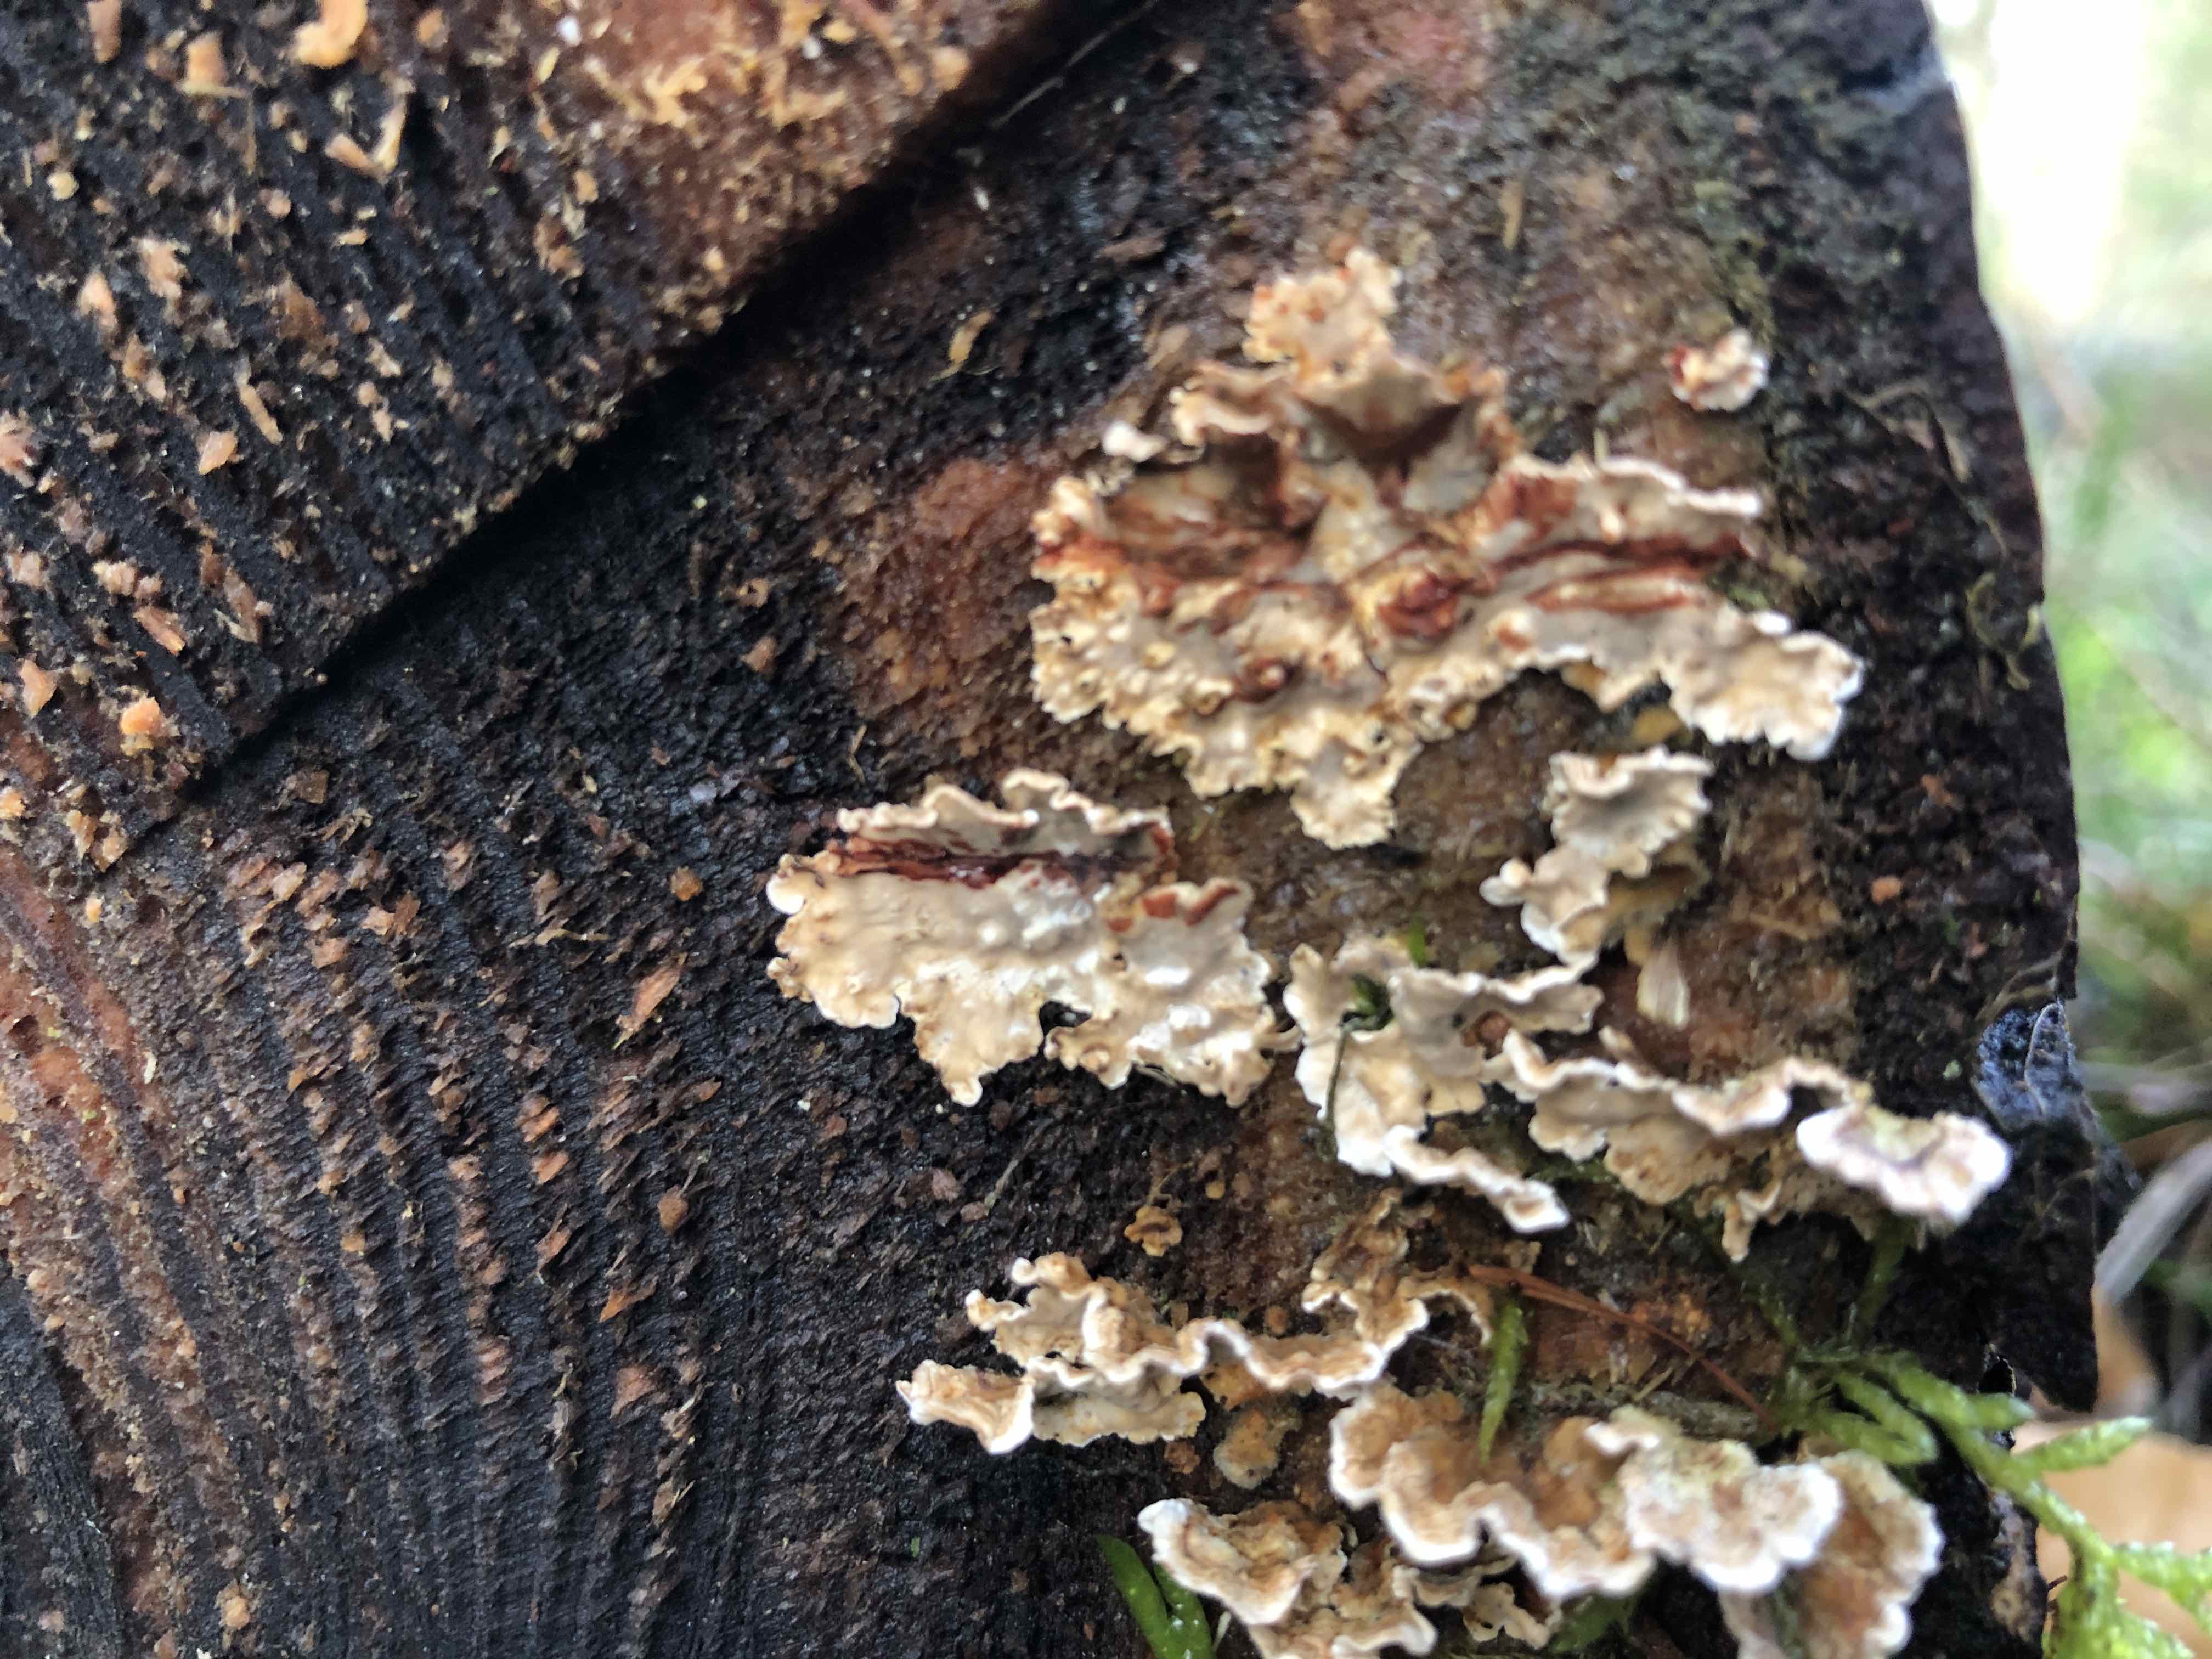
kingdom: Fungi
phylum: Basidiomycota
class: Agaricomycetes
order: Russulales
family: Stereaceae
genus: Stereum
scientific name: Stereum sanguinolentum
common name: blødende lædersvamp
